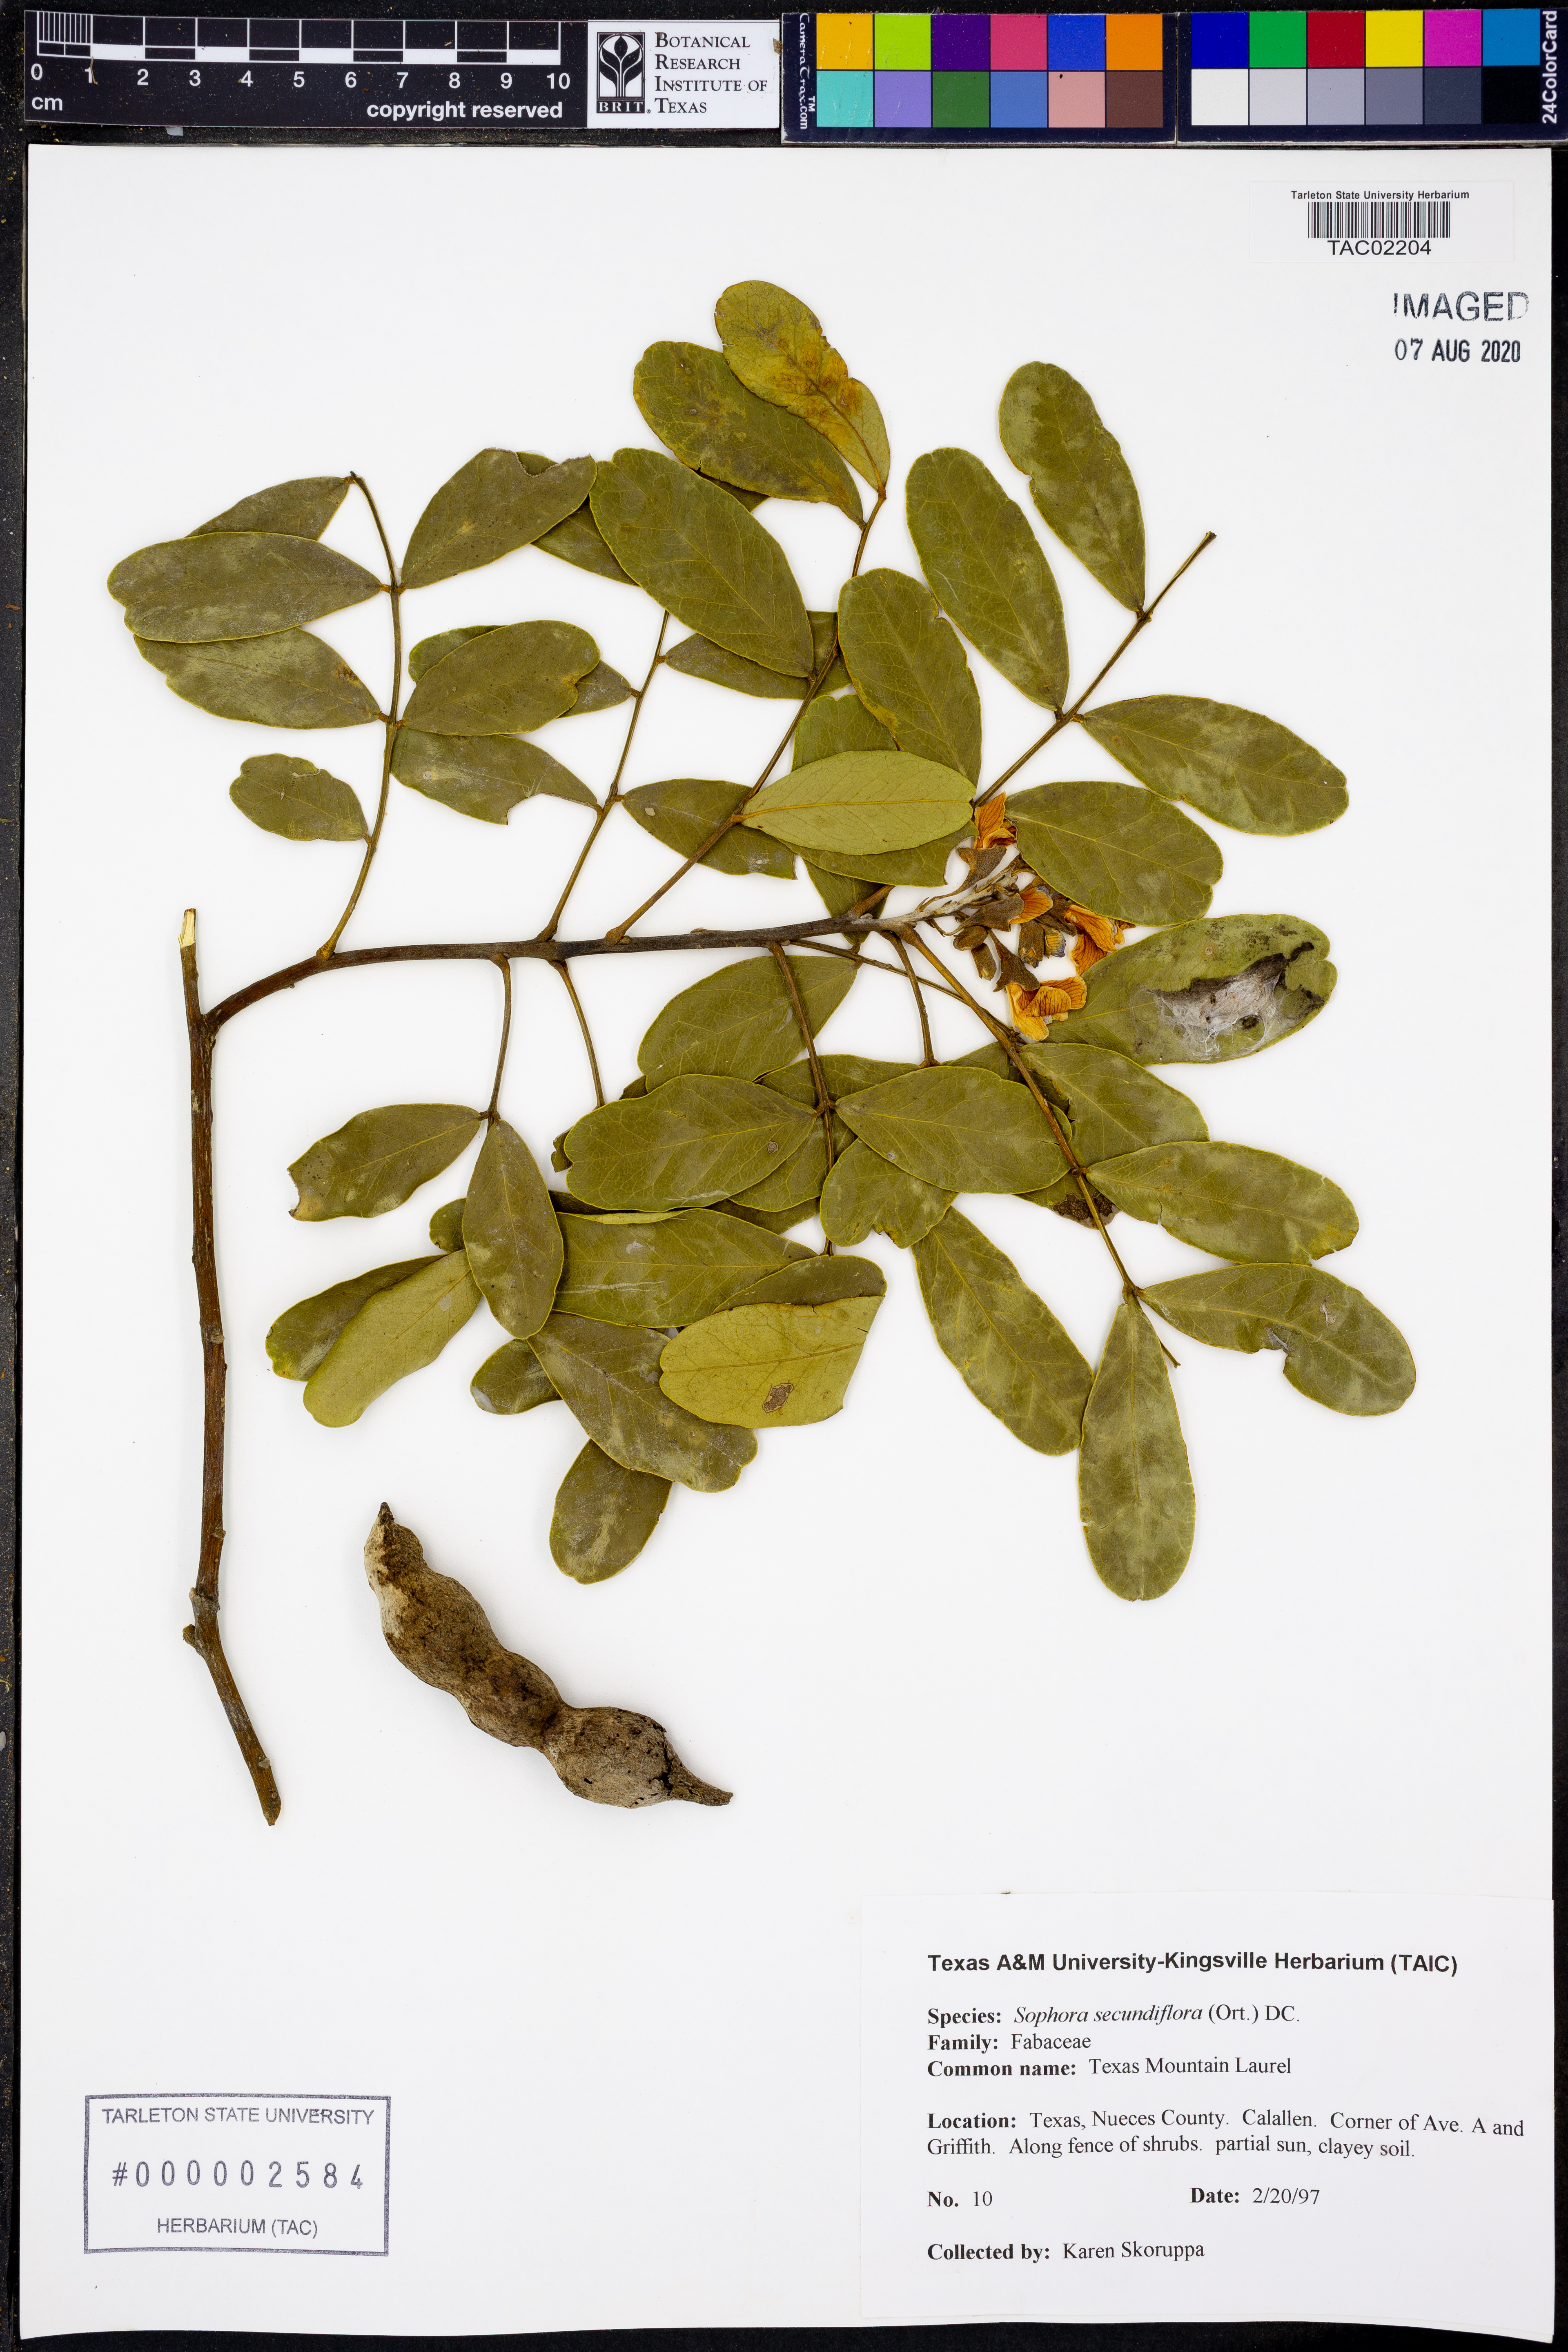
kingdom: Plantae
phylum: Tracheophyta
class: Magnoliopsida
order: Fabales
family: Fabaceae
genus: Dermatophyllum
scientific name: Dermatophyllum secundiflorum
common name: Texas-mountain-laurel
